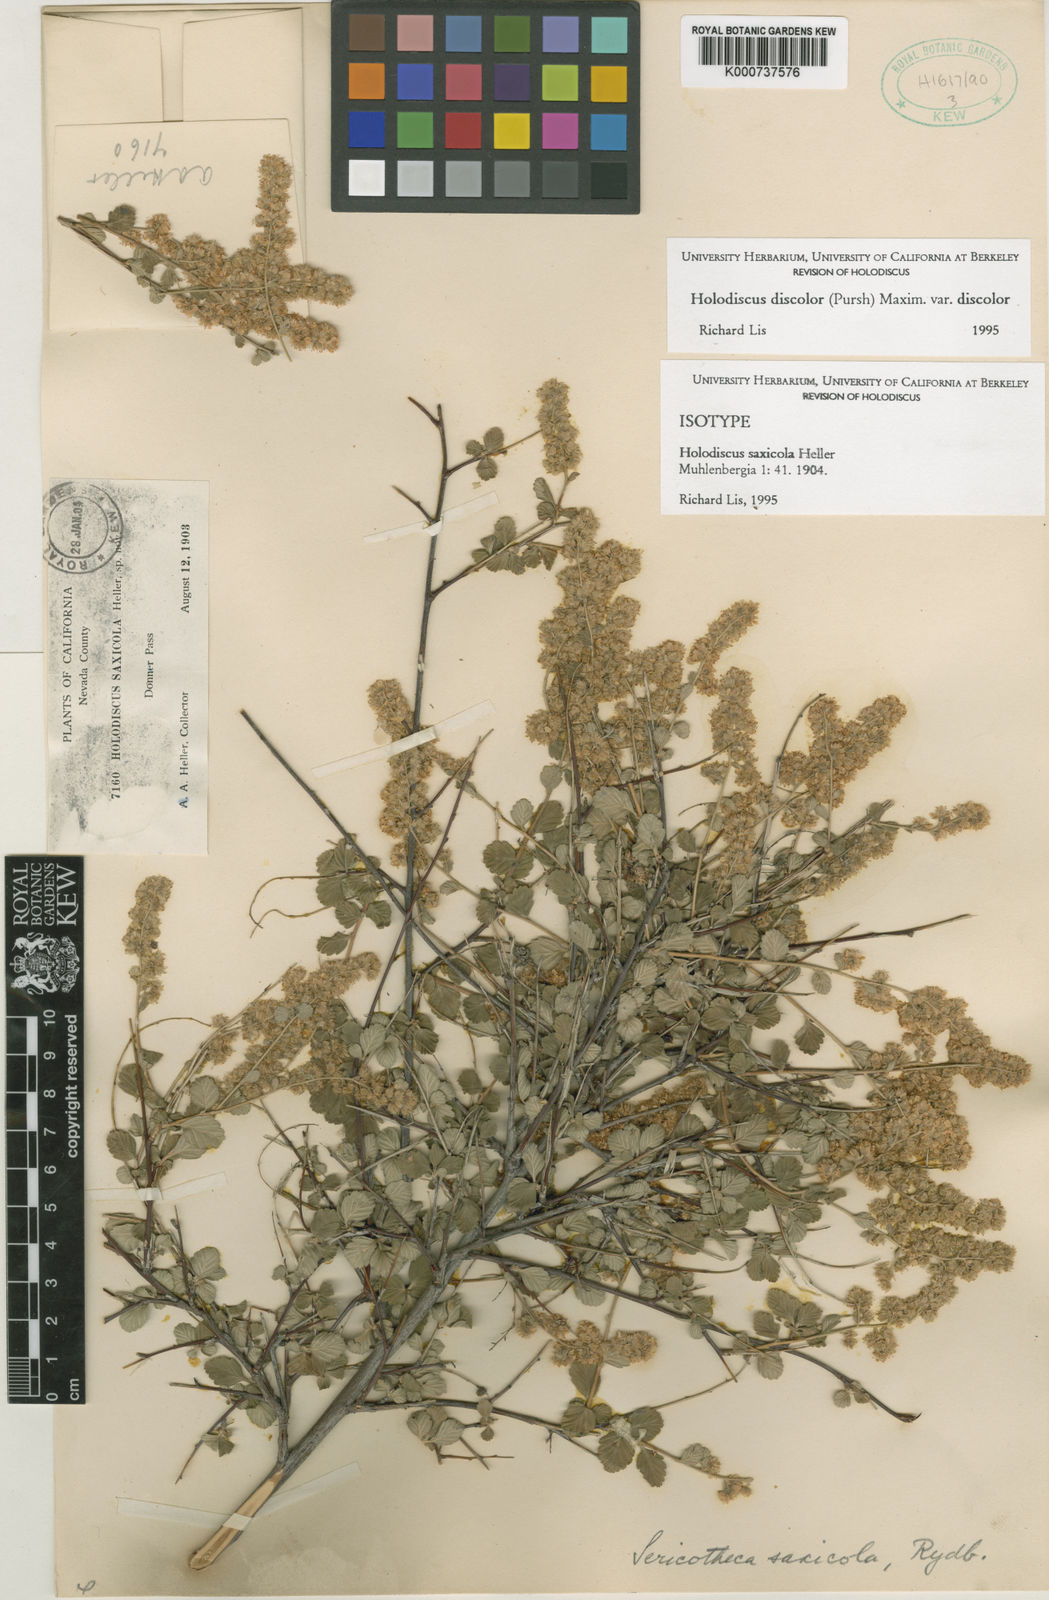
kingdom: Plantae
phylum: Tracheophyta
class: Magnoliopsida
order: Rosales
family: Rosaceae
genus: Holodiscus
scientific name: Holodiscus discolor
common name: Oceanspray
